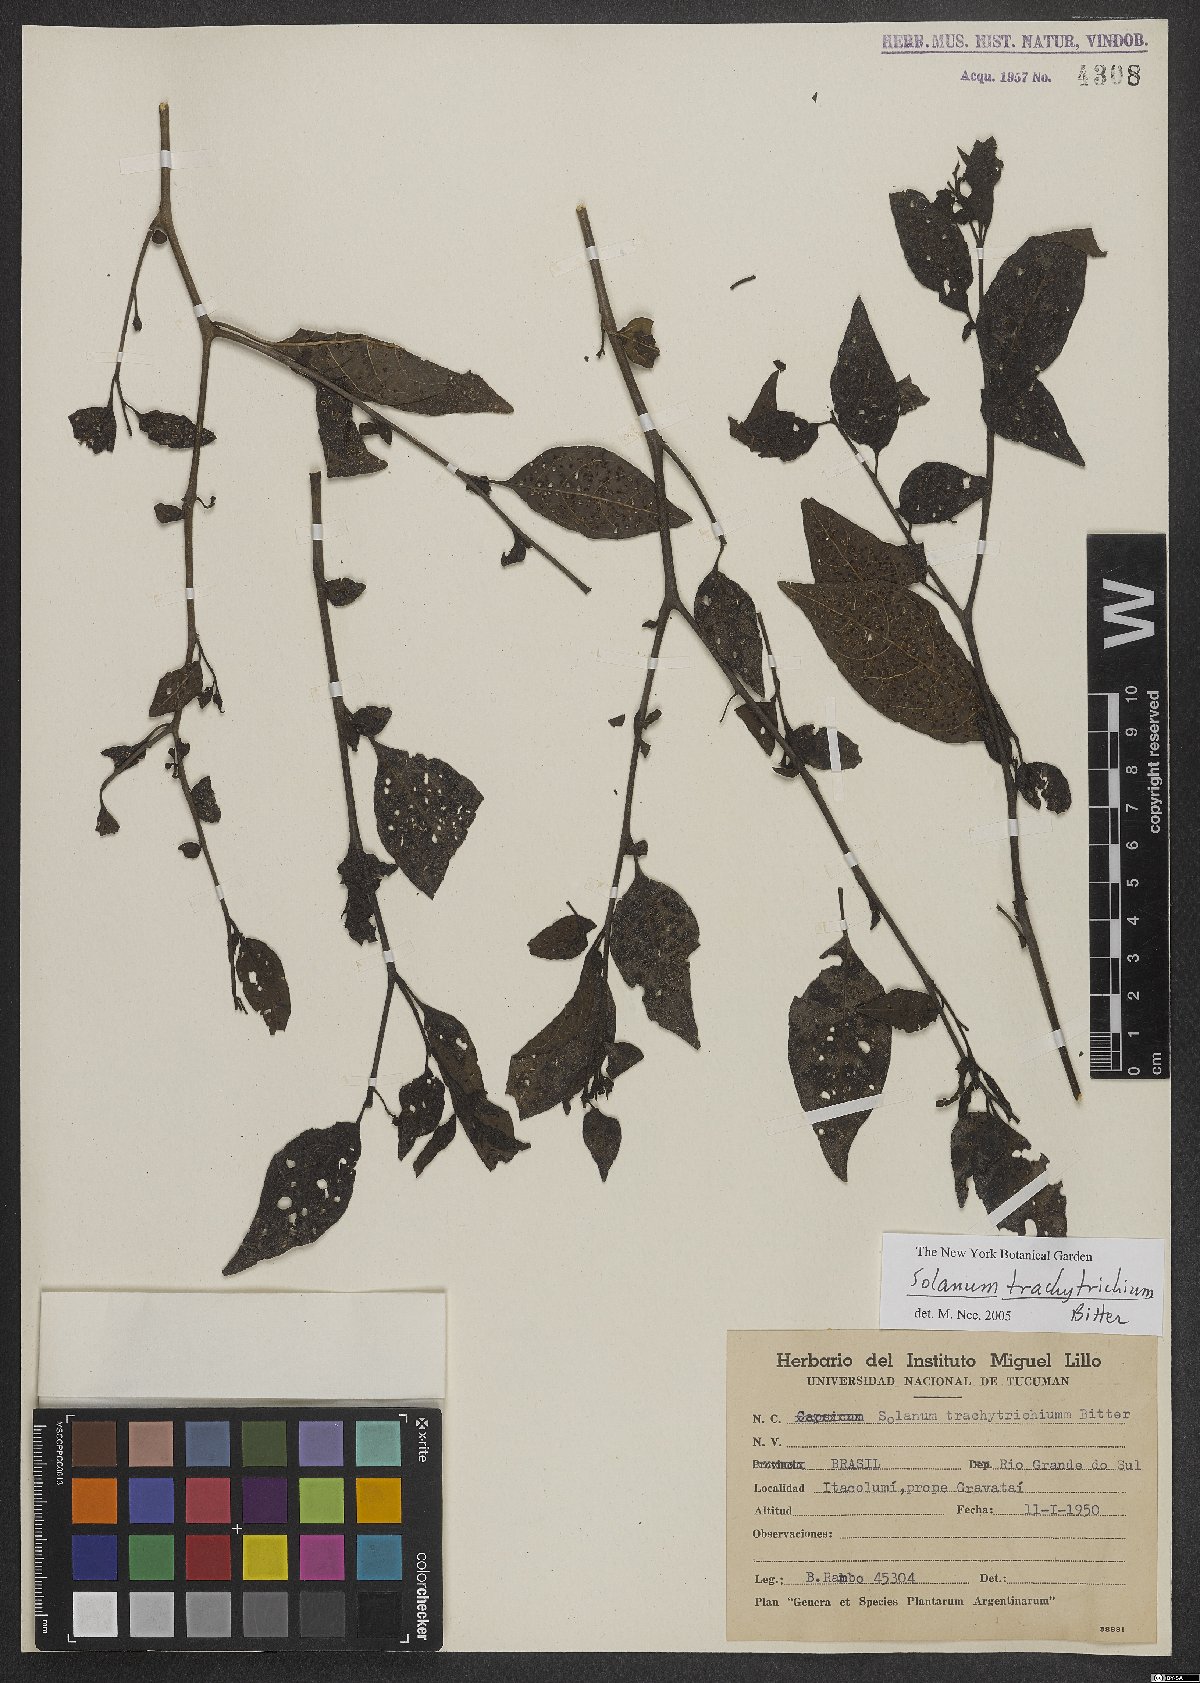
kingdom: Plantae
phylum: Tracheophyta
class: Magnoliopsida
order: Solanales
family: Solanaceae
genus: Solanum
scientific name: Solanum trachytrichium
